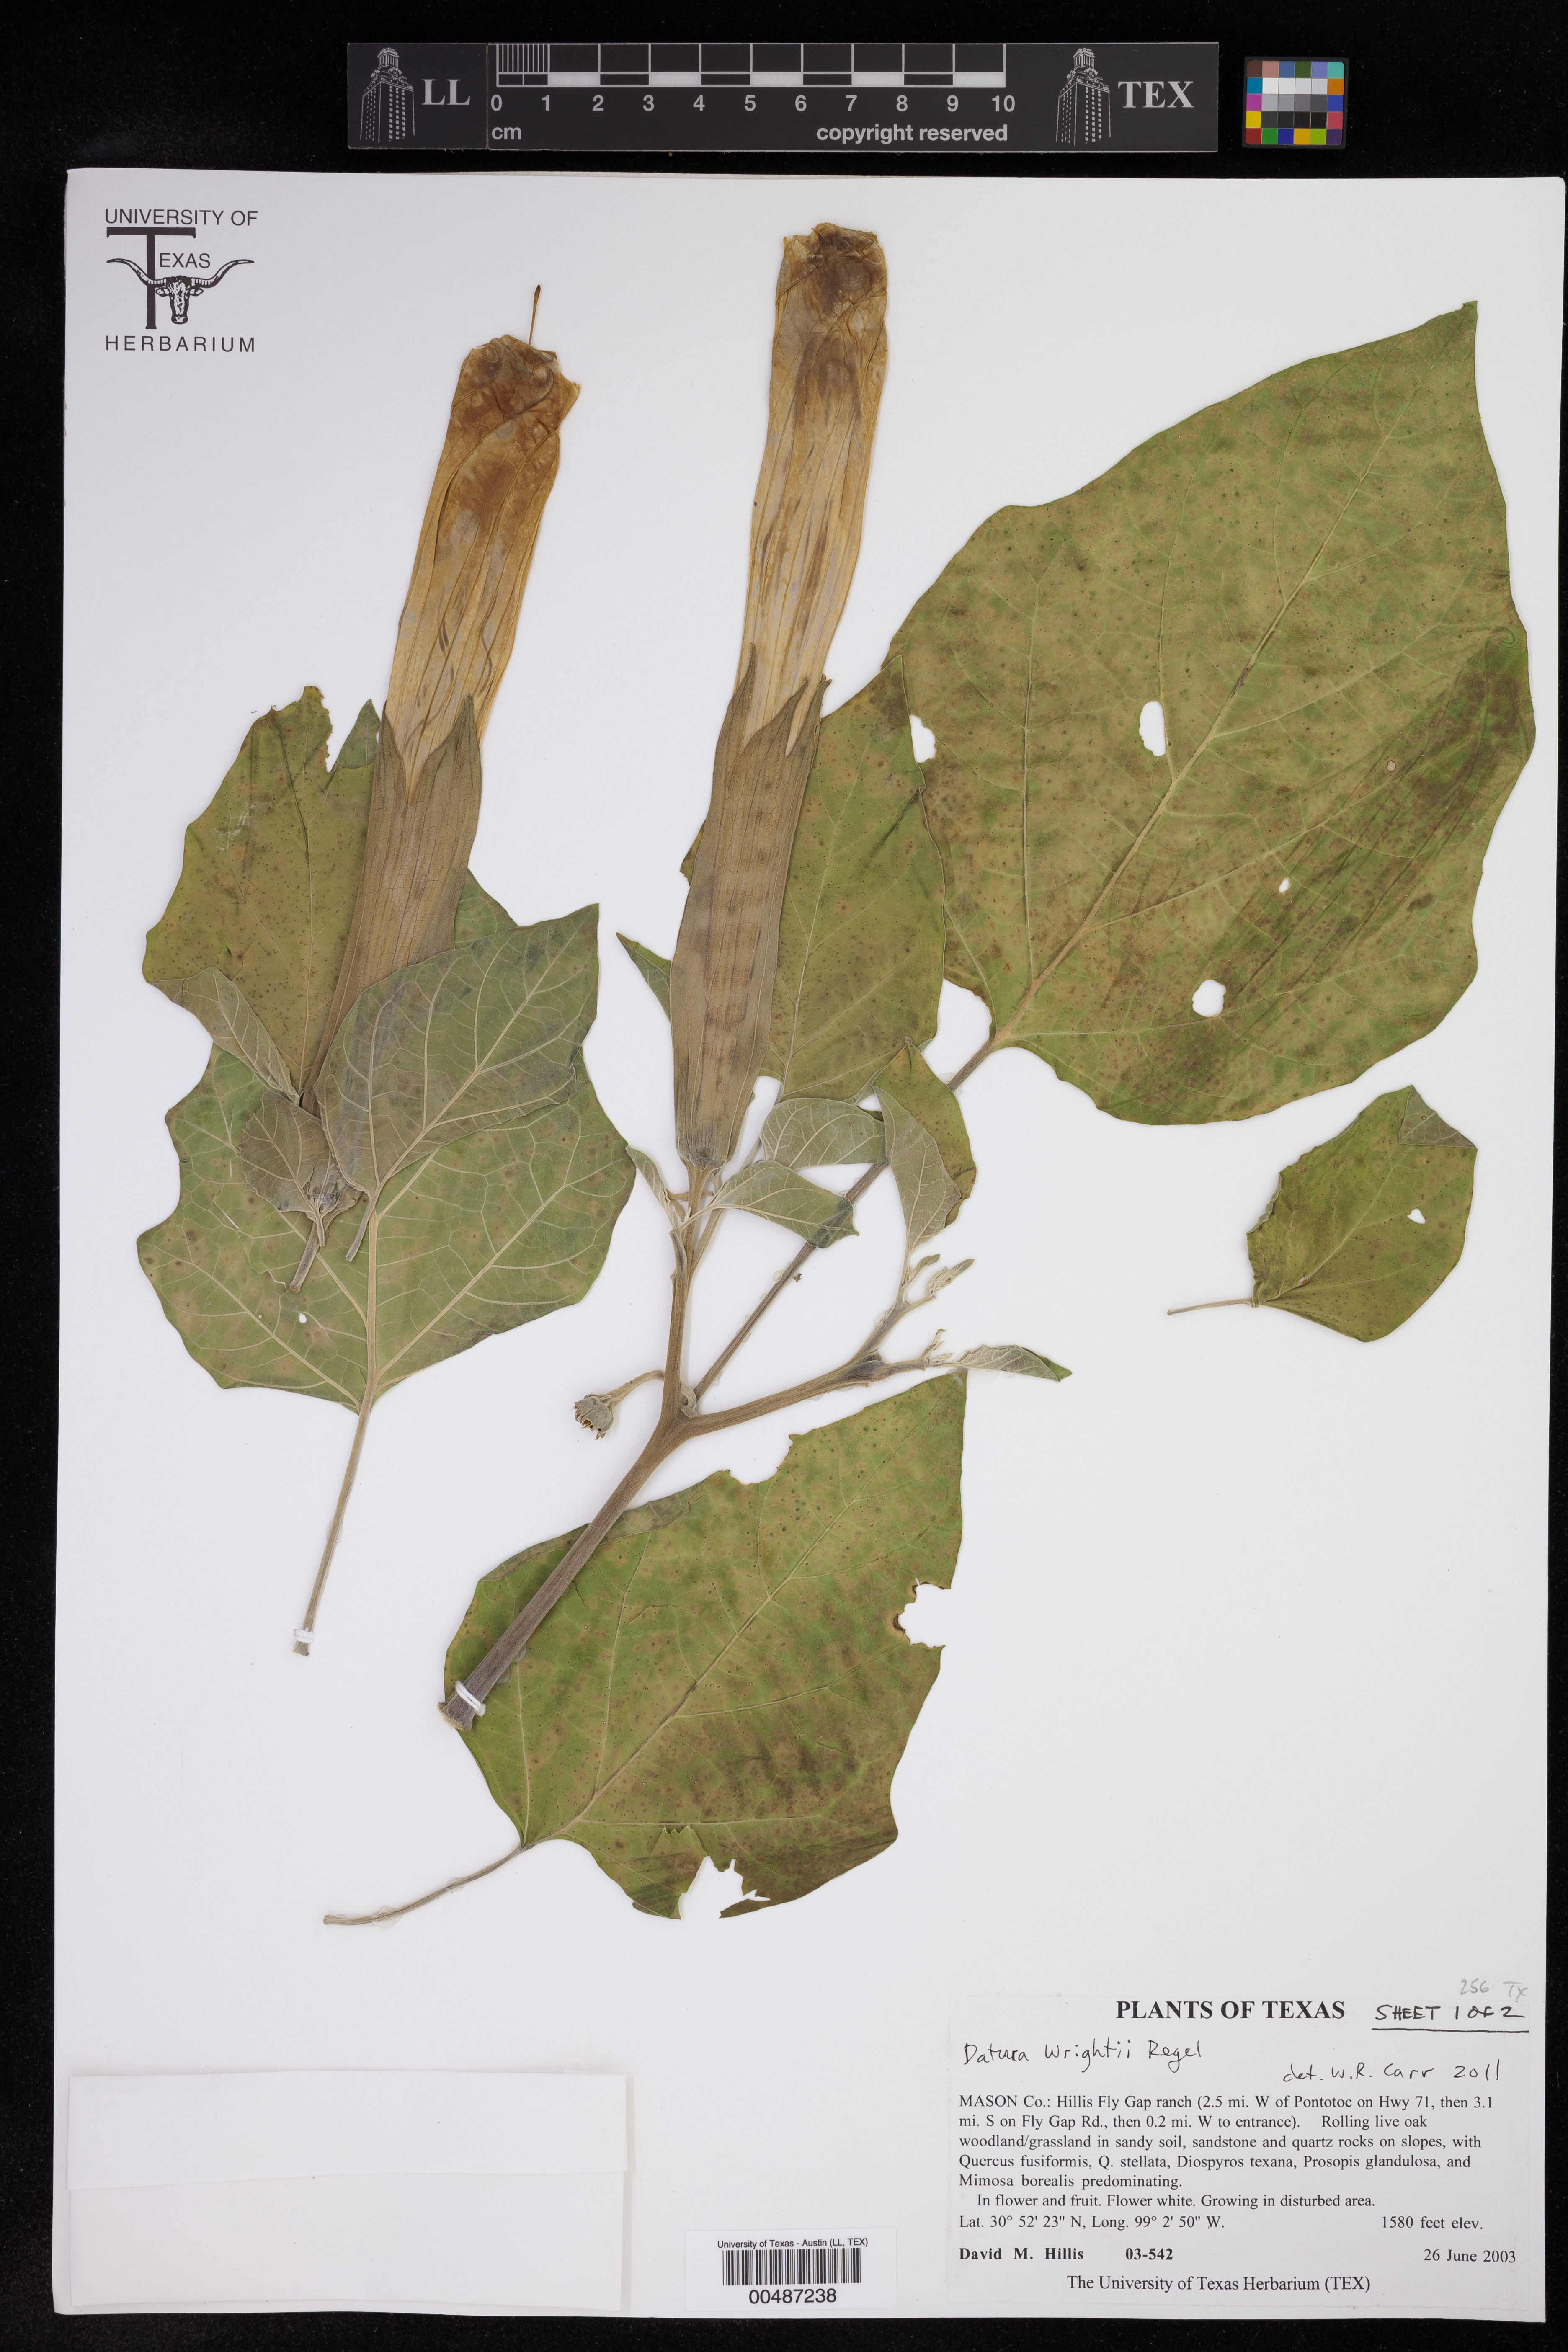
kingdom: Plantae
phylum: Tracheophyta
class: Magnoliopsida
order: Solanales
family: Solanaceae
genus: Datura
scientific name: Datura wrightii
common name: Sacred thorn-apple
